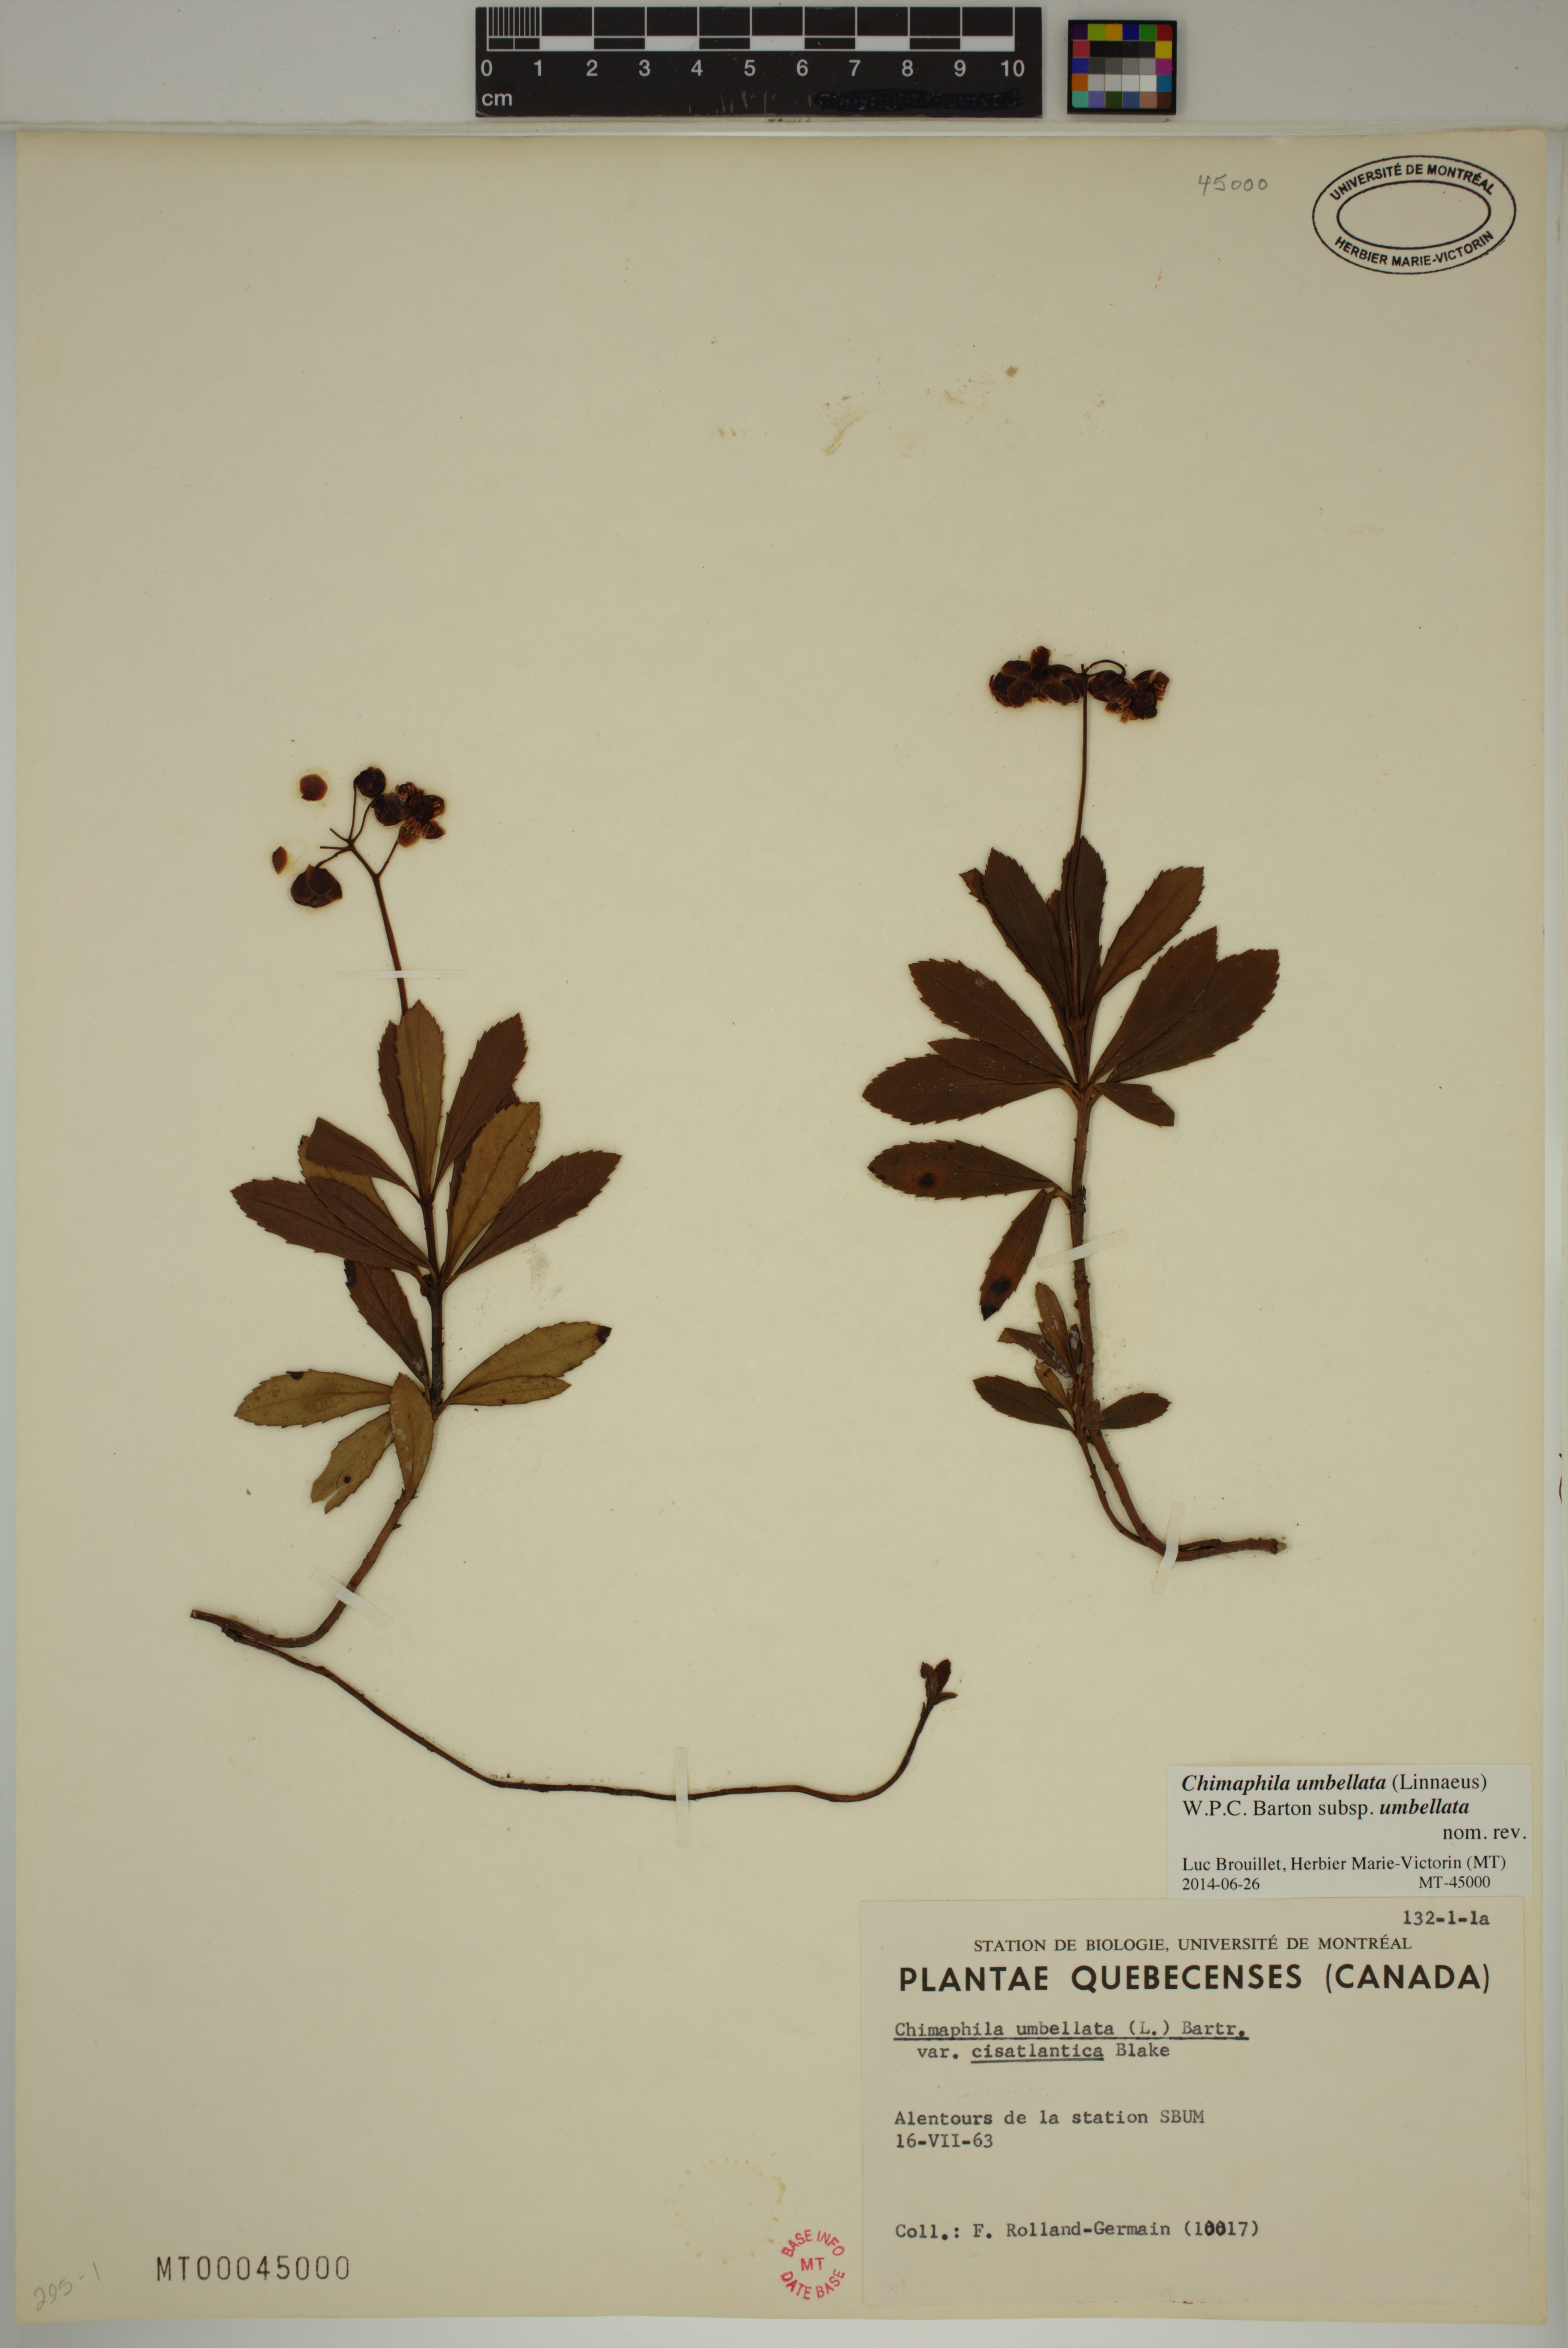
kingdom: Plantae
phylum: Tracheophyta
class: Magnoliopsida
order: Ericales
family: Ericaceae
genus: Chimaphila
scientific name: Chimaphila umbellata
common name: Pipsissewa
